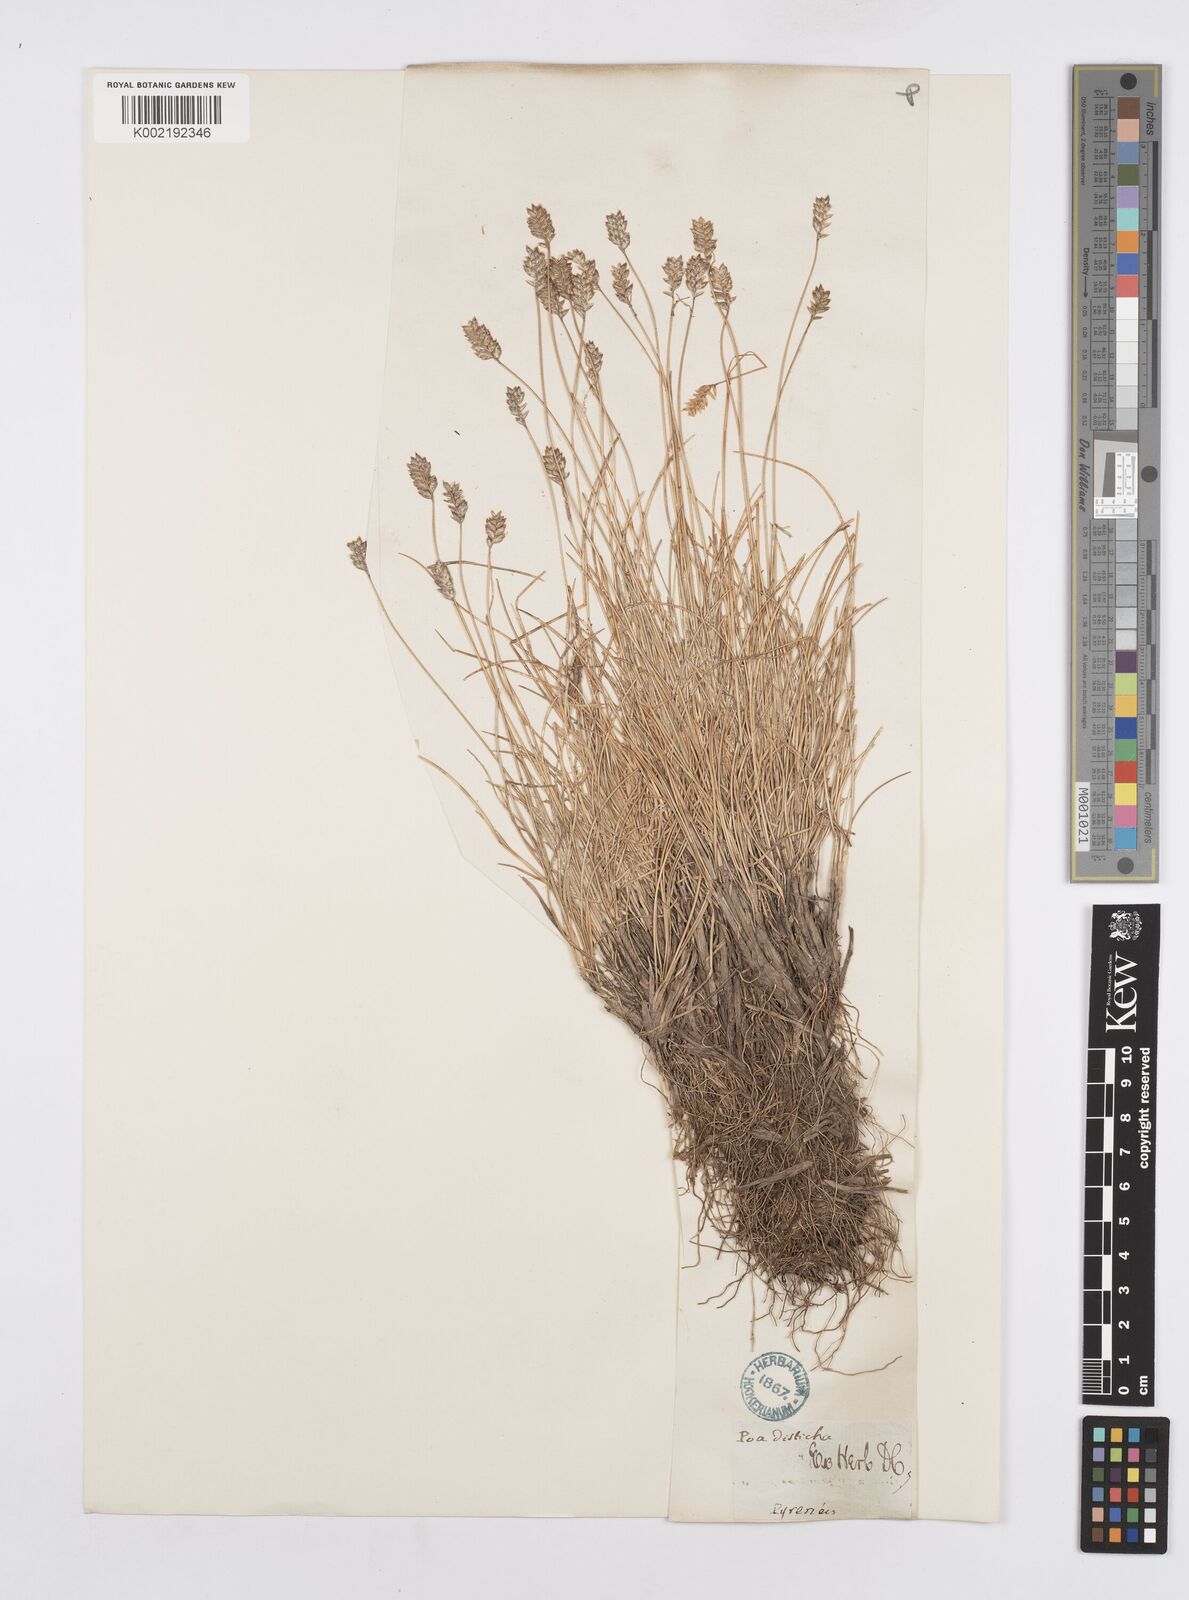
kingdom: Plantae
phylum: Tracheophyta
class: Liliopsida
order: Poales
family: Poaceae
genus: Oreochloa
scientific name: Oreochloa elegans
